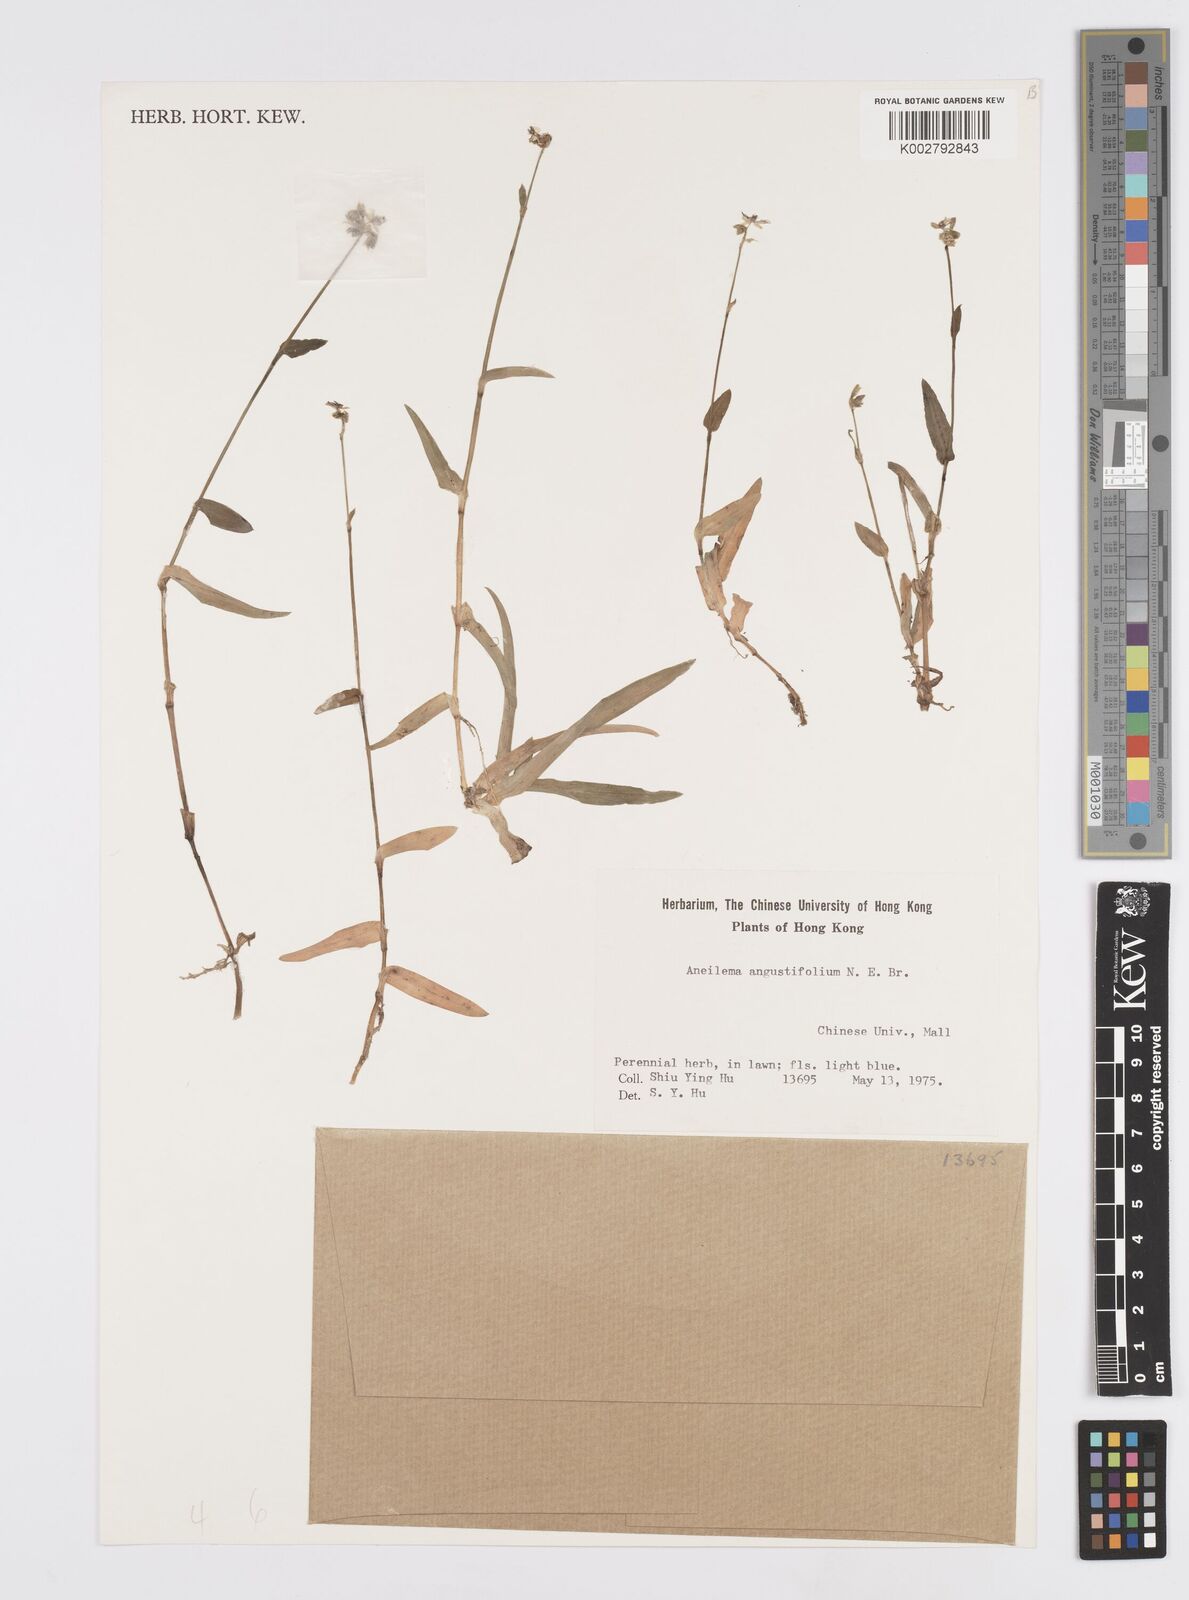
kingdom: Plantae
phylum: Tracheophyta
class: Liliopsida
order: Commelinales
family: Commelinaceae
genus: Murdannia
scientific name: Murdannia loriformis
